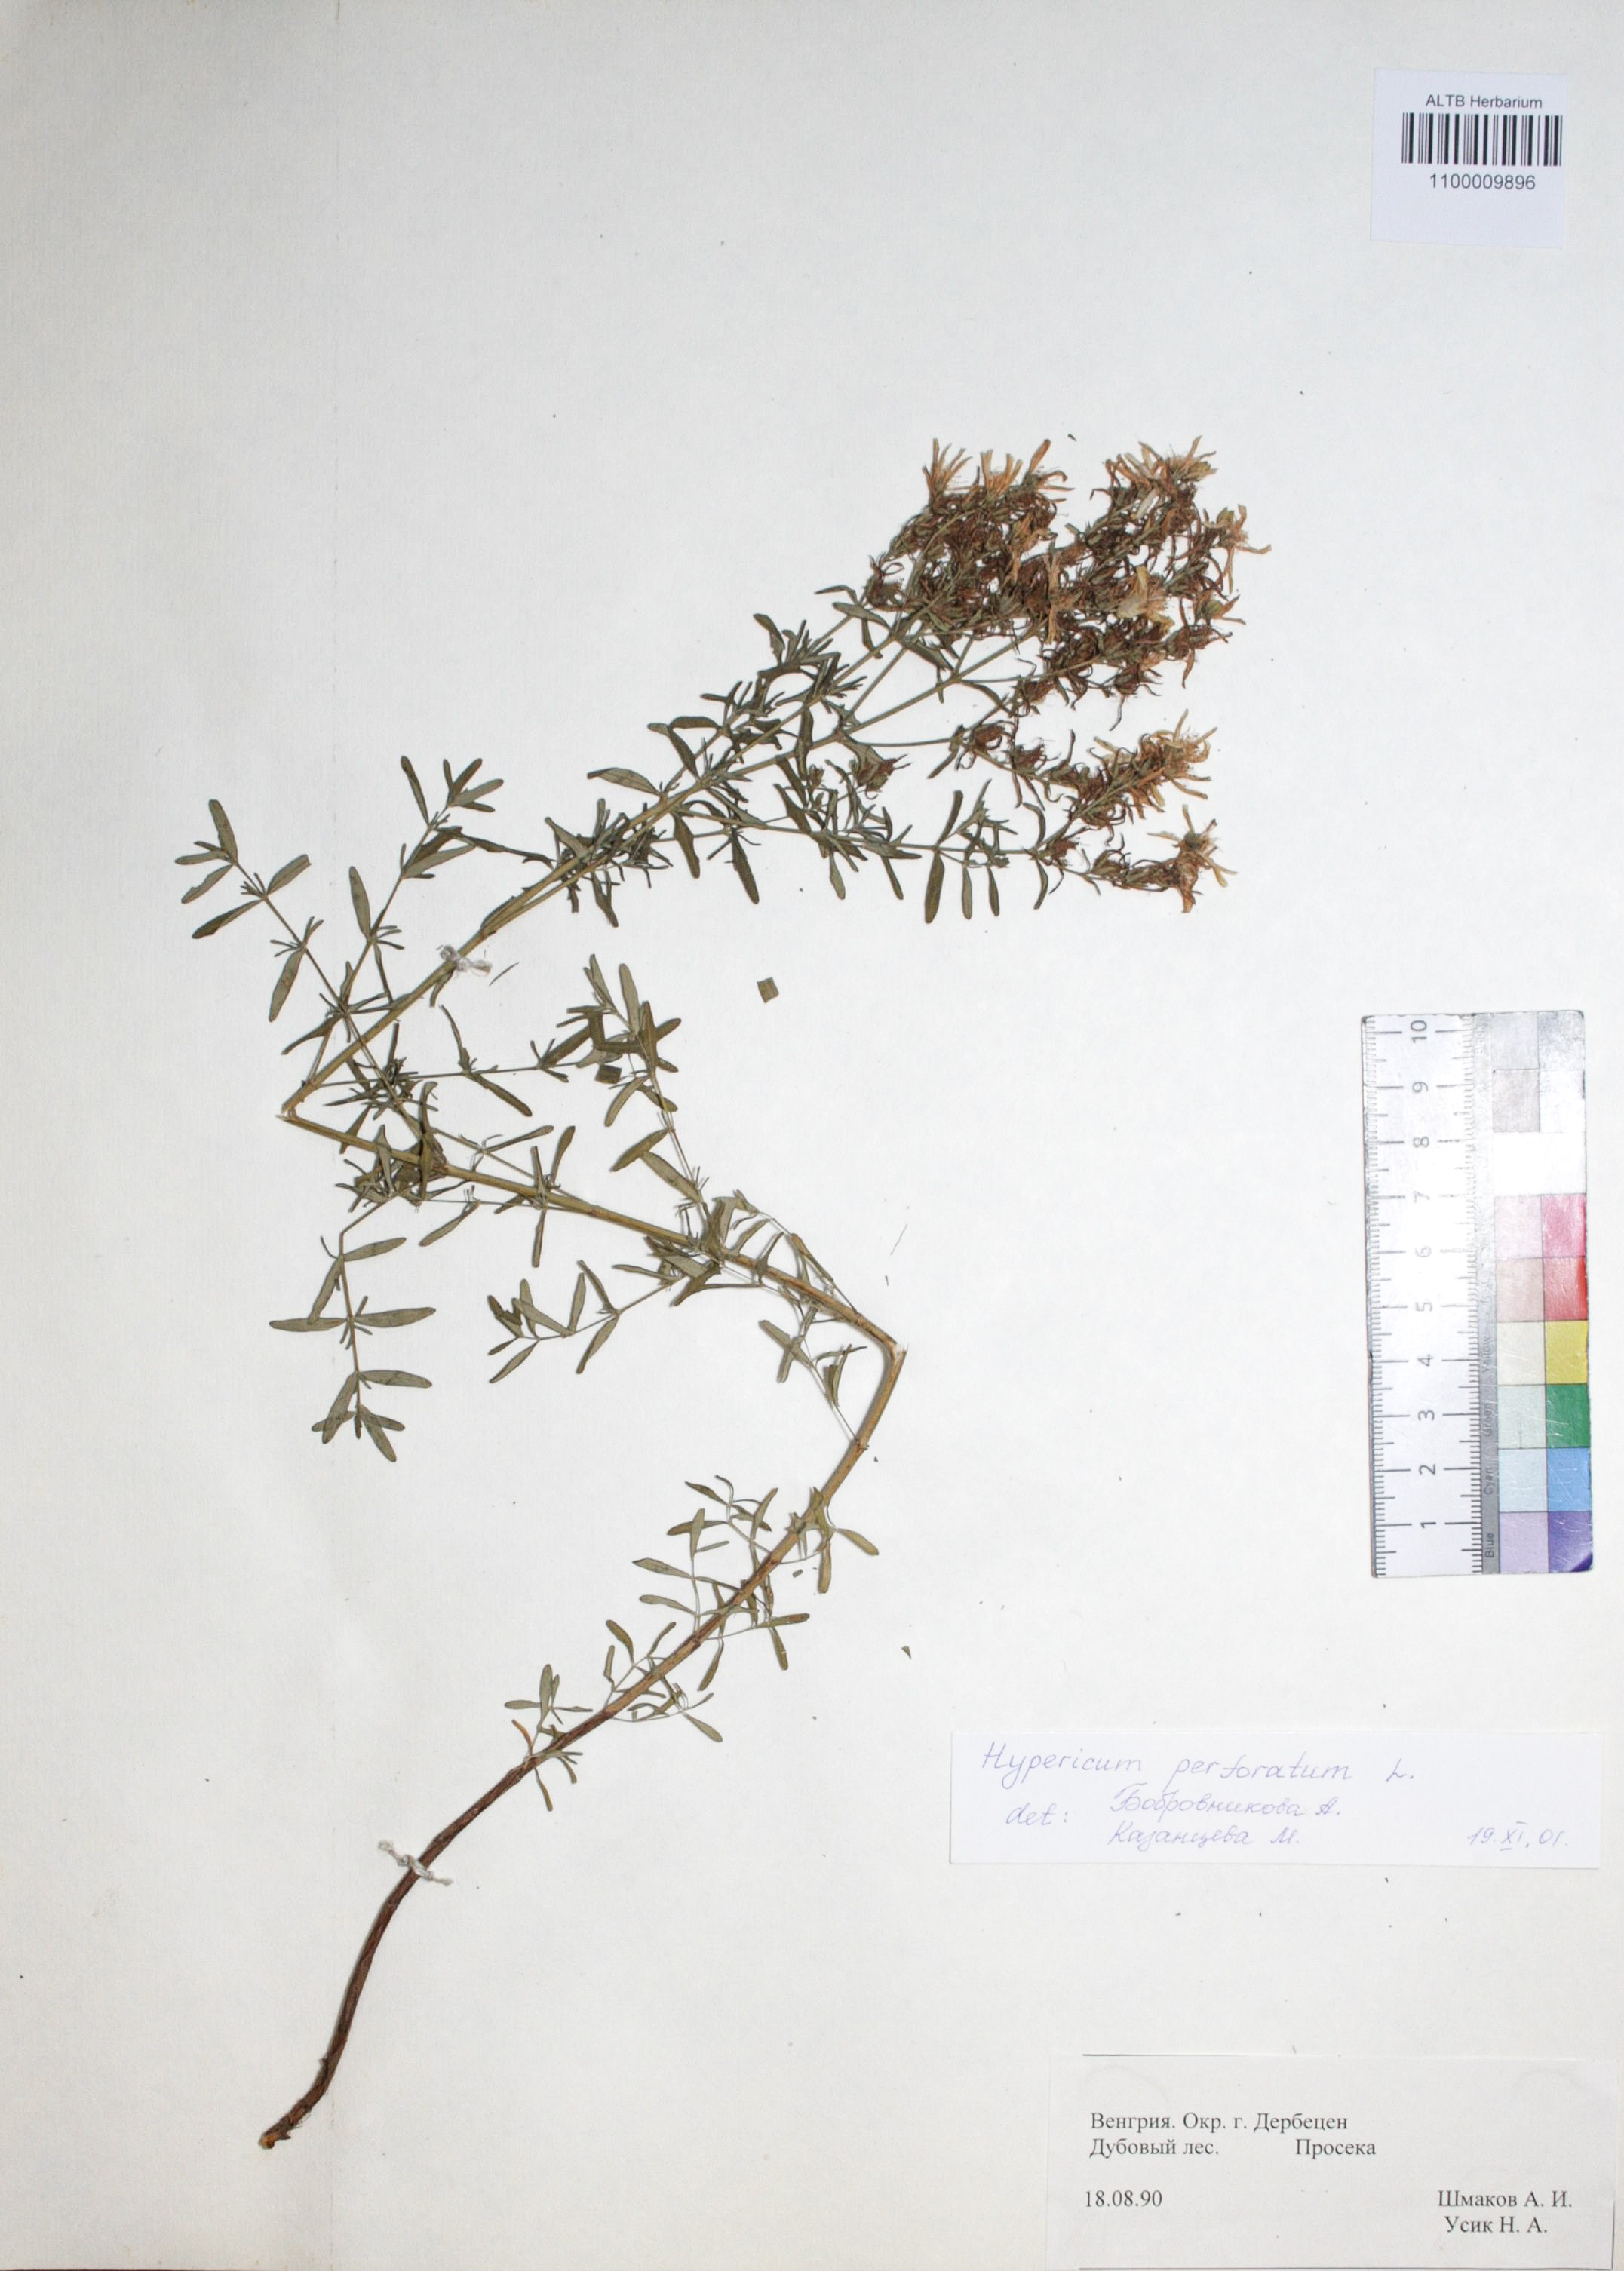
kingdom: Plantae
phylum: Tracheophyta
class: Magnoliopsida
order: Malpighiales
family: Hypericaceae
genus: Hypericum
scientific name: Hypericum perforatum
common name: Common st. johnswort
